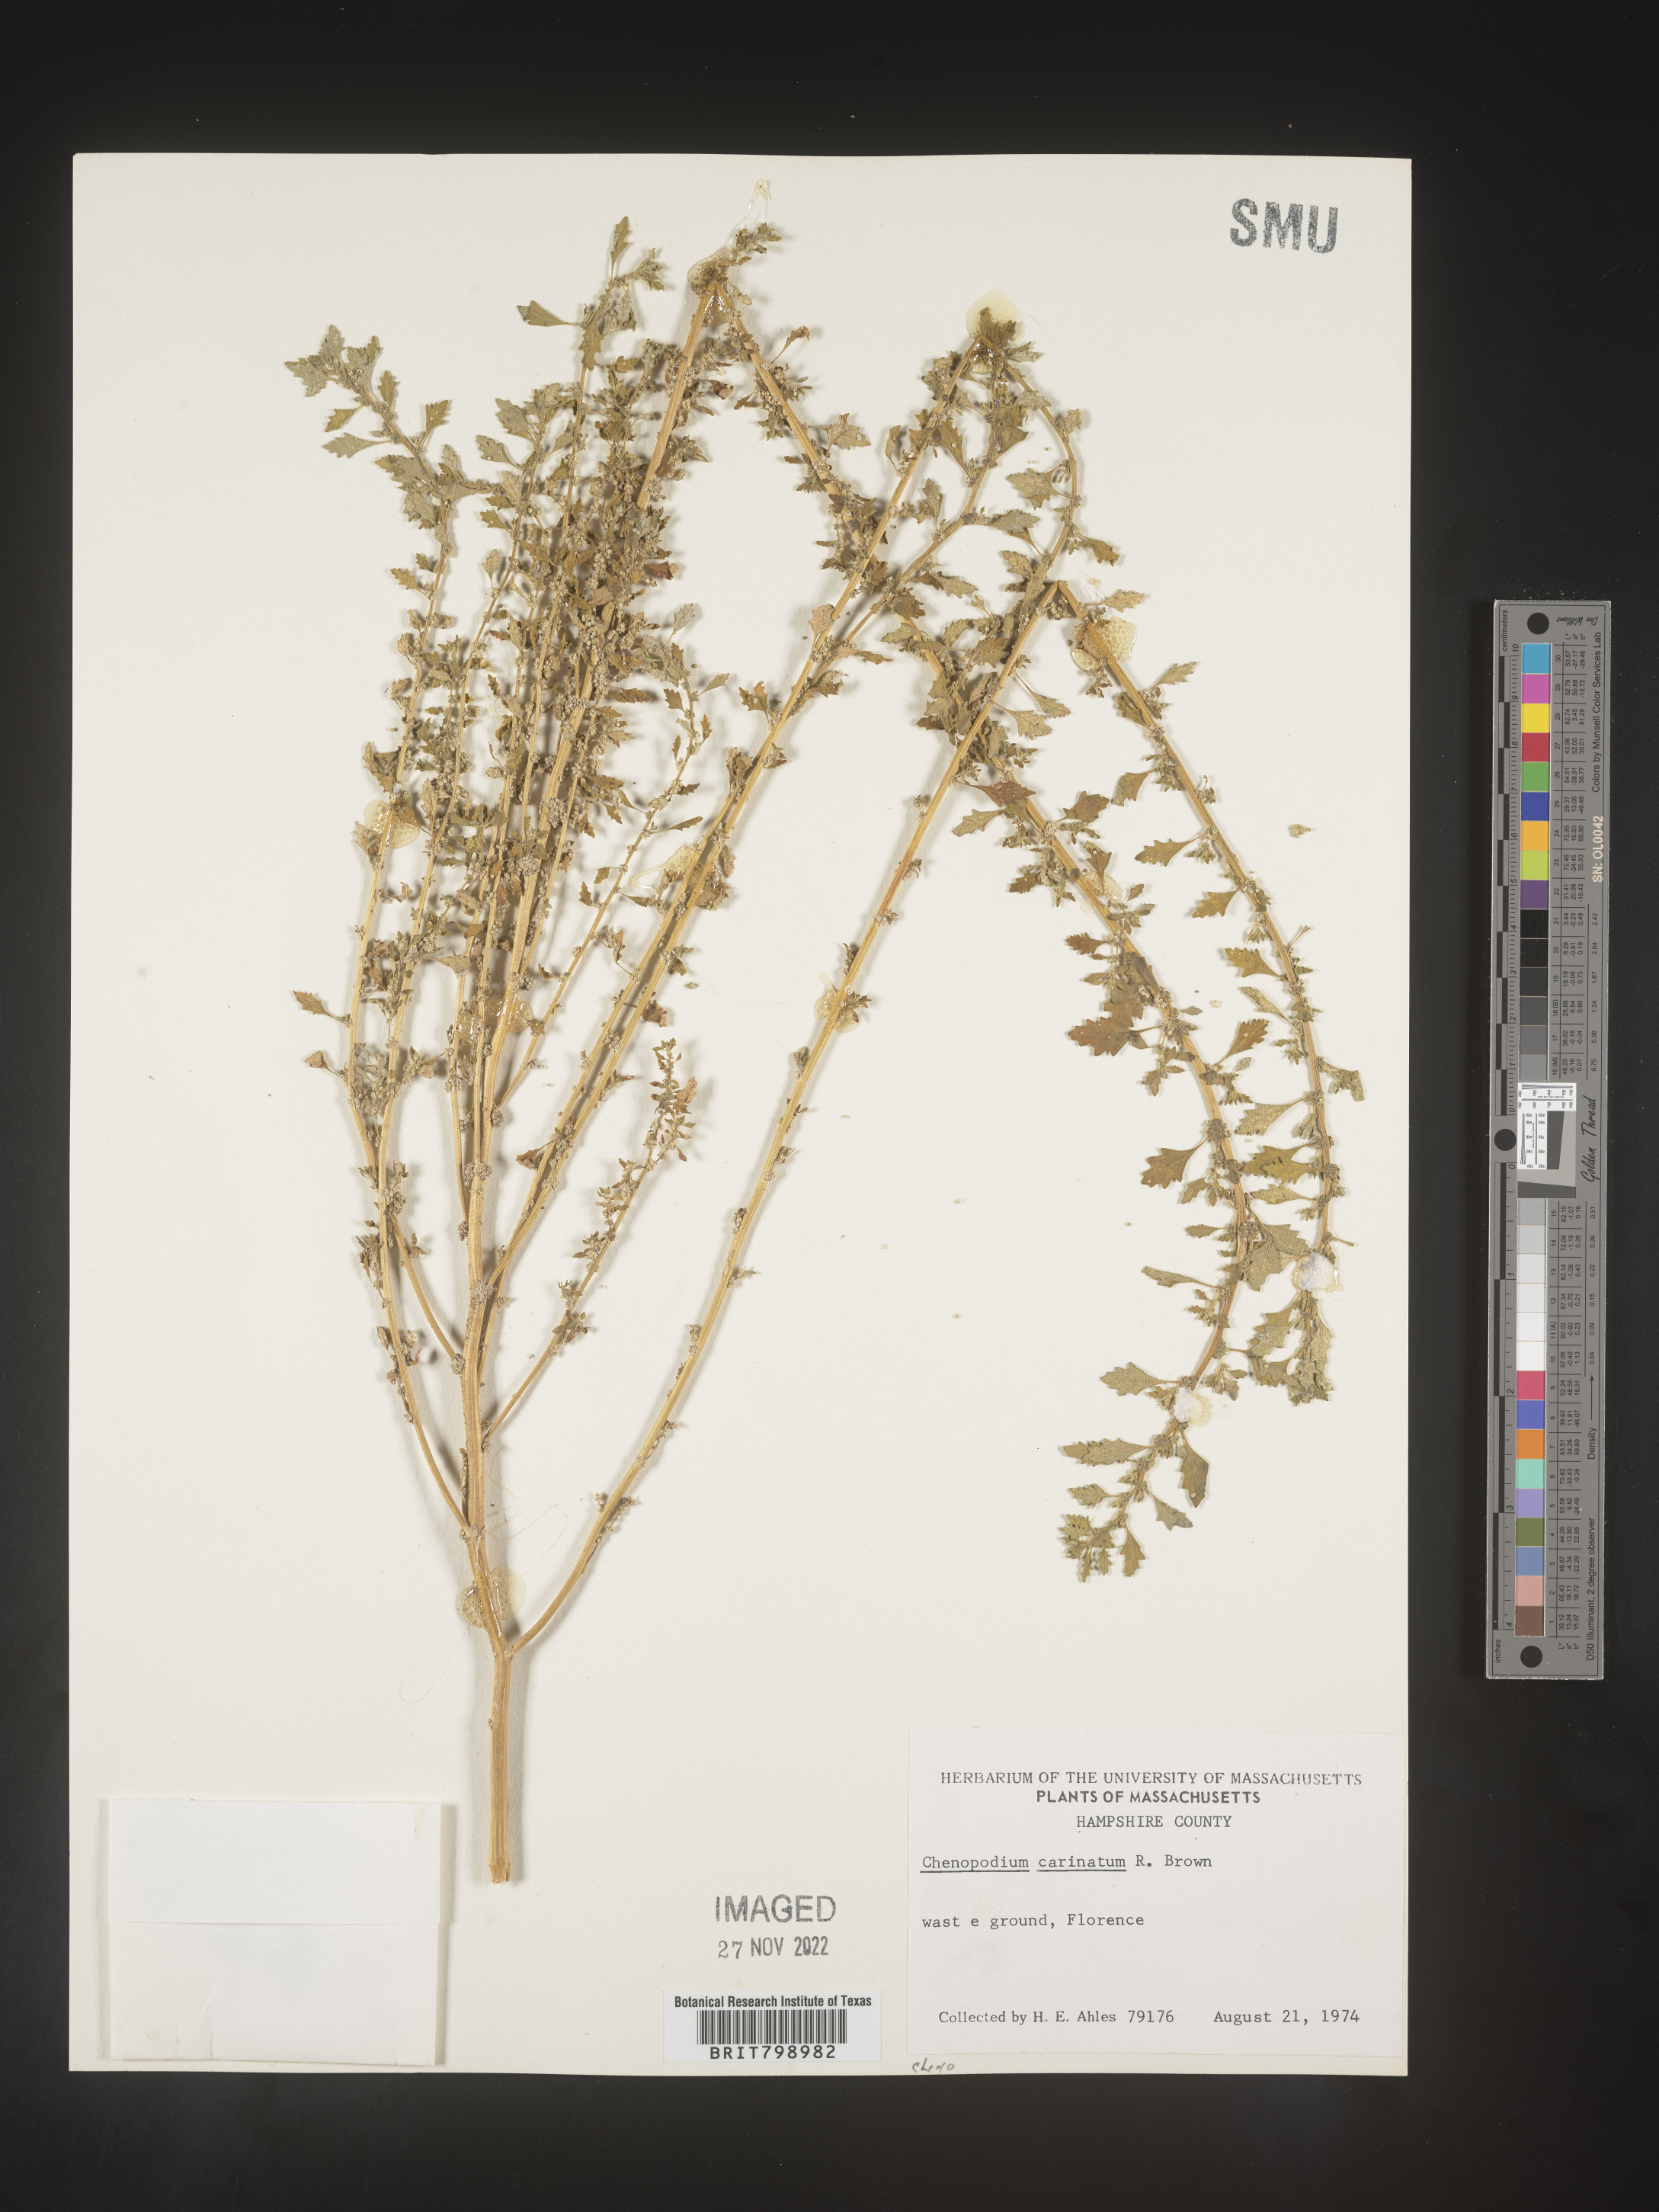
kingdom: Plantae
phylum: Tracheophyta
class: Magnoliopsida
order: Caryophyllales
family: Amaranthaceae
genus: Dysphania
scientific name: Dysphania pumilio
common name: Clammy goosefoot
